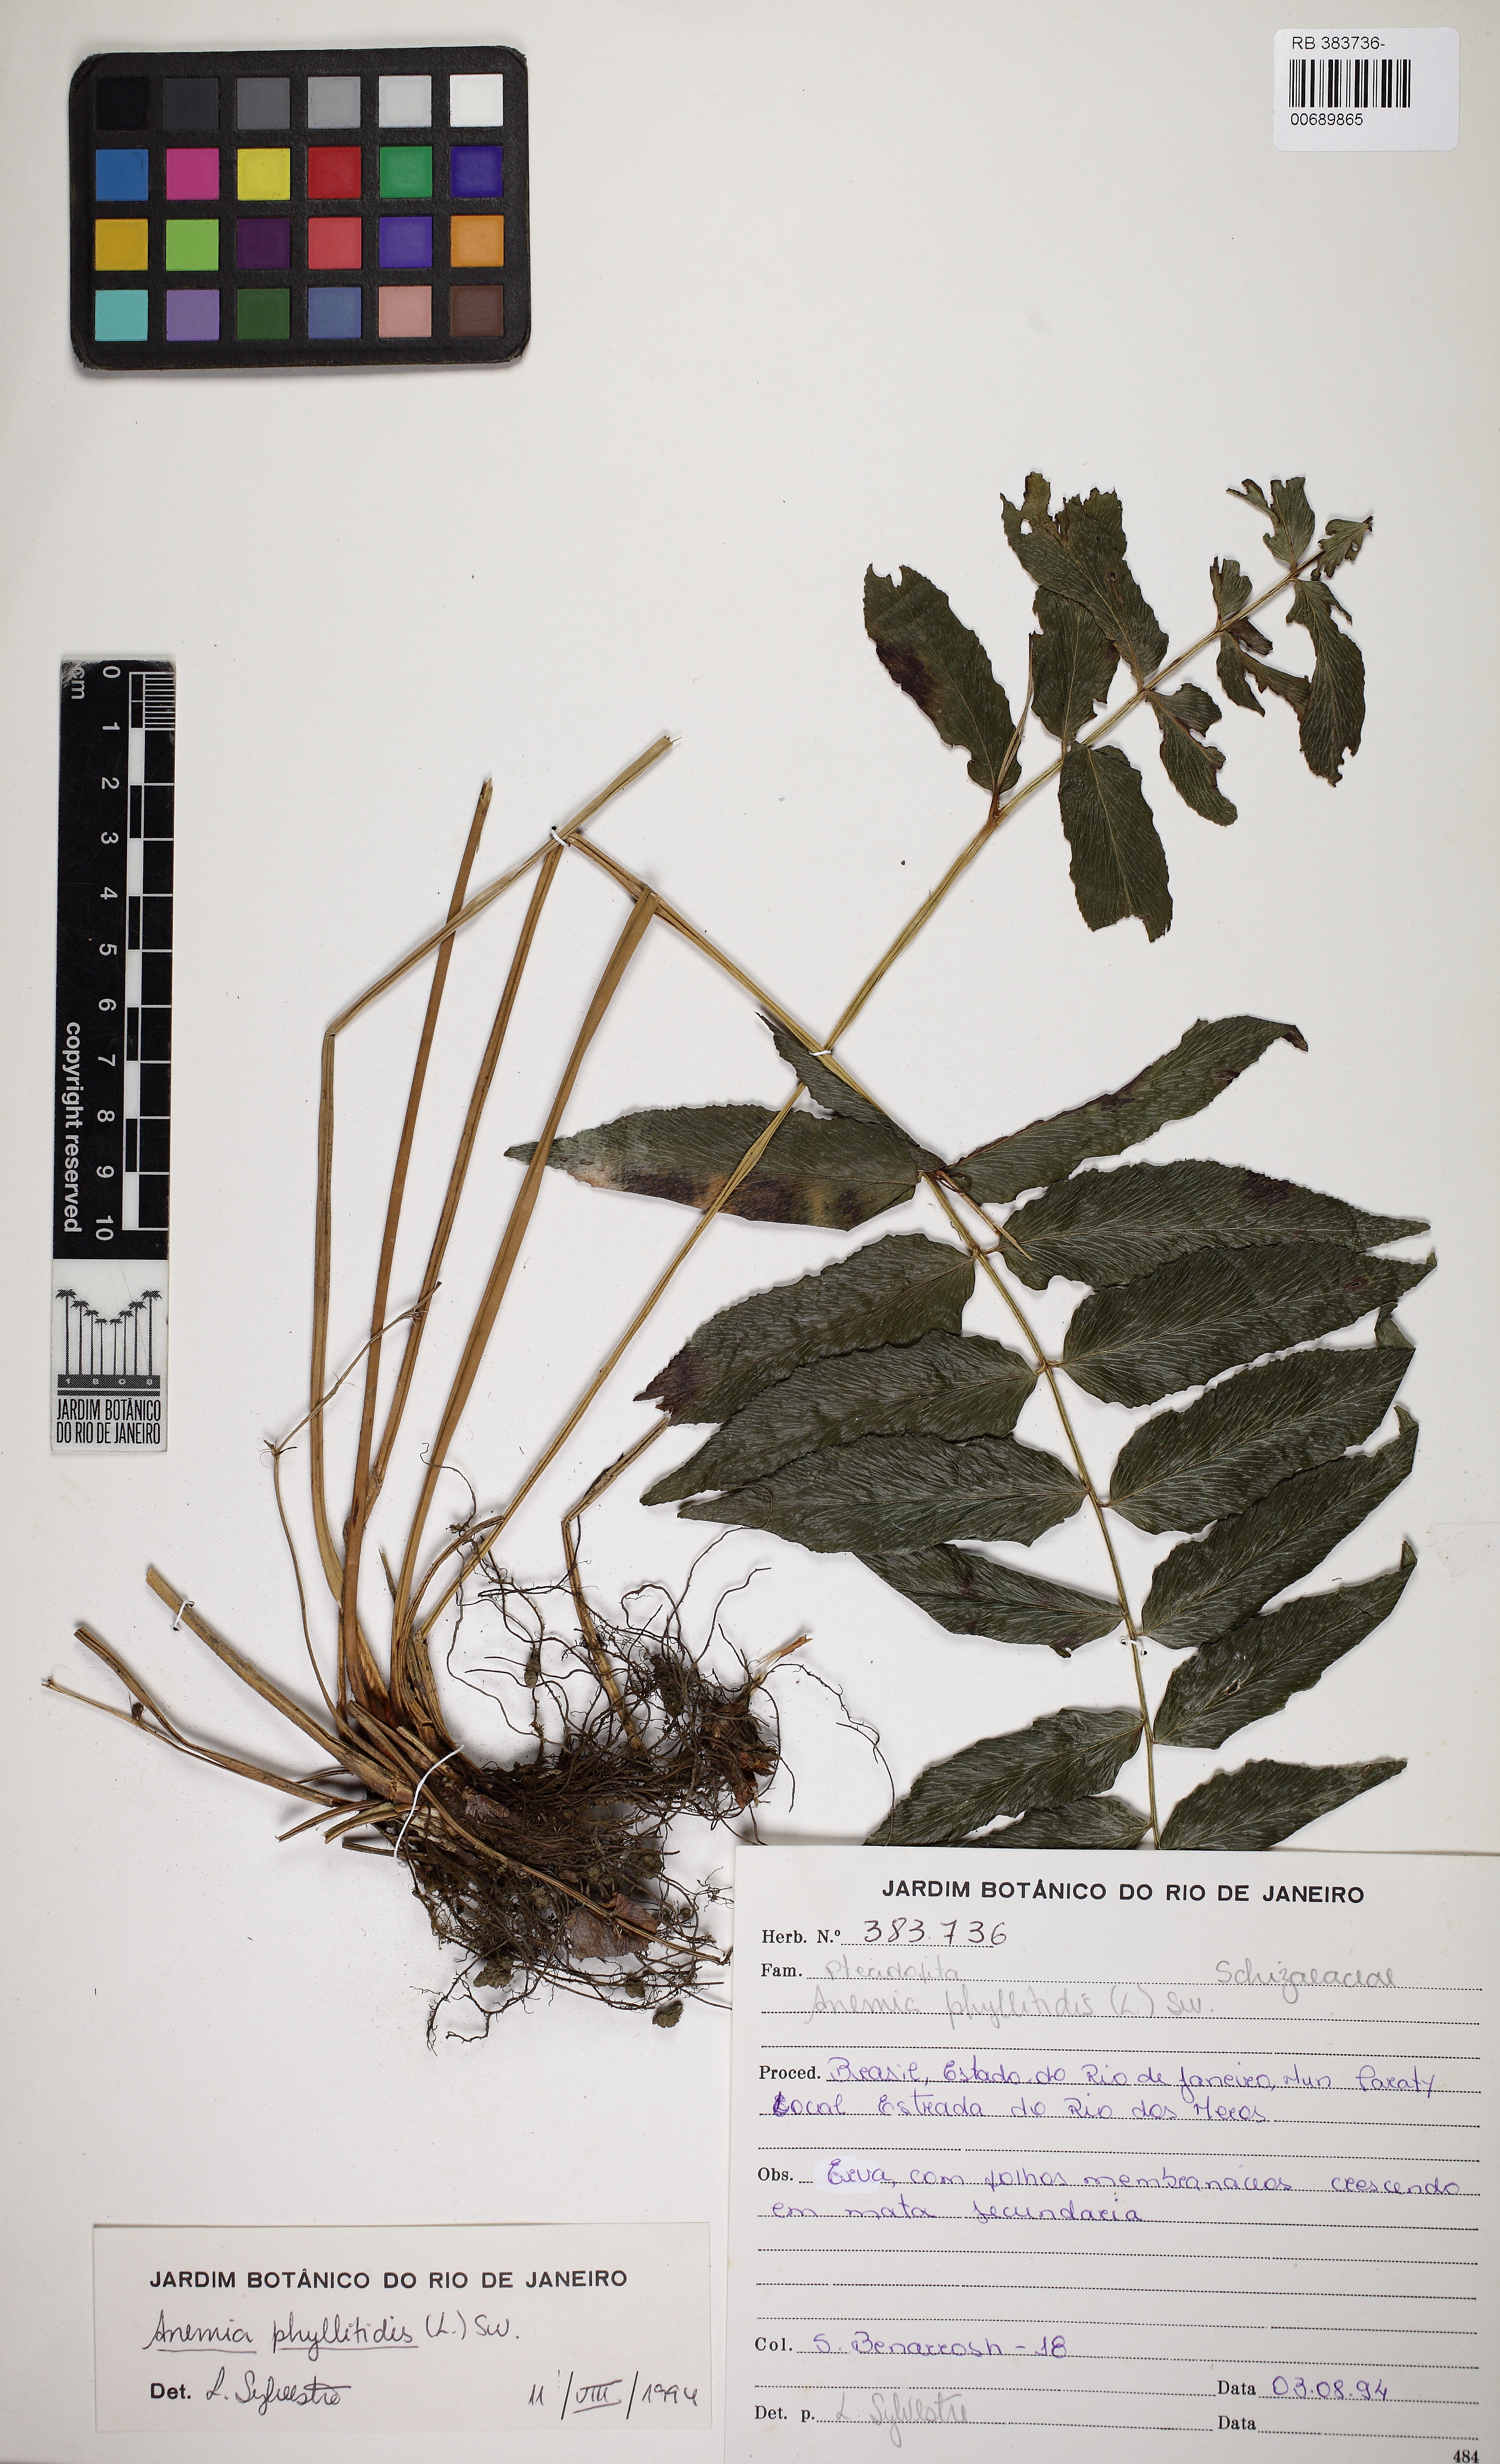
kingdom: Plantae
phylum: Tracheophyta
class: Polypodiopsida
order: Schizaeales
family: Anemiaceae
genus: Anemia
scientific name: Anemia phyllitidis
